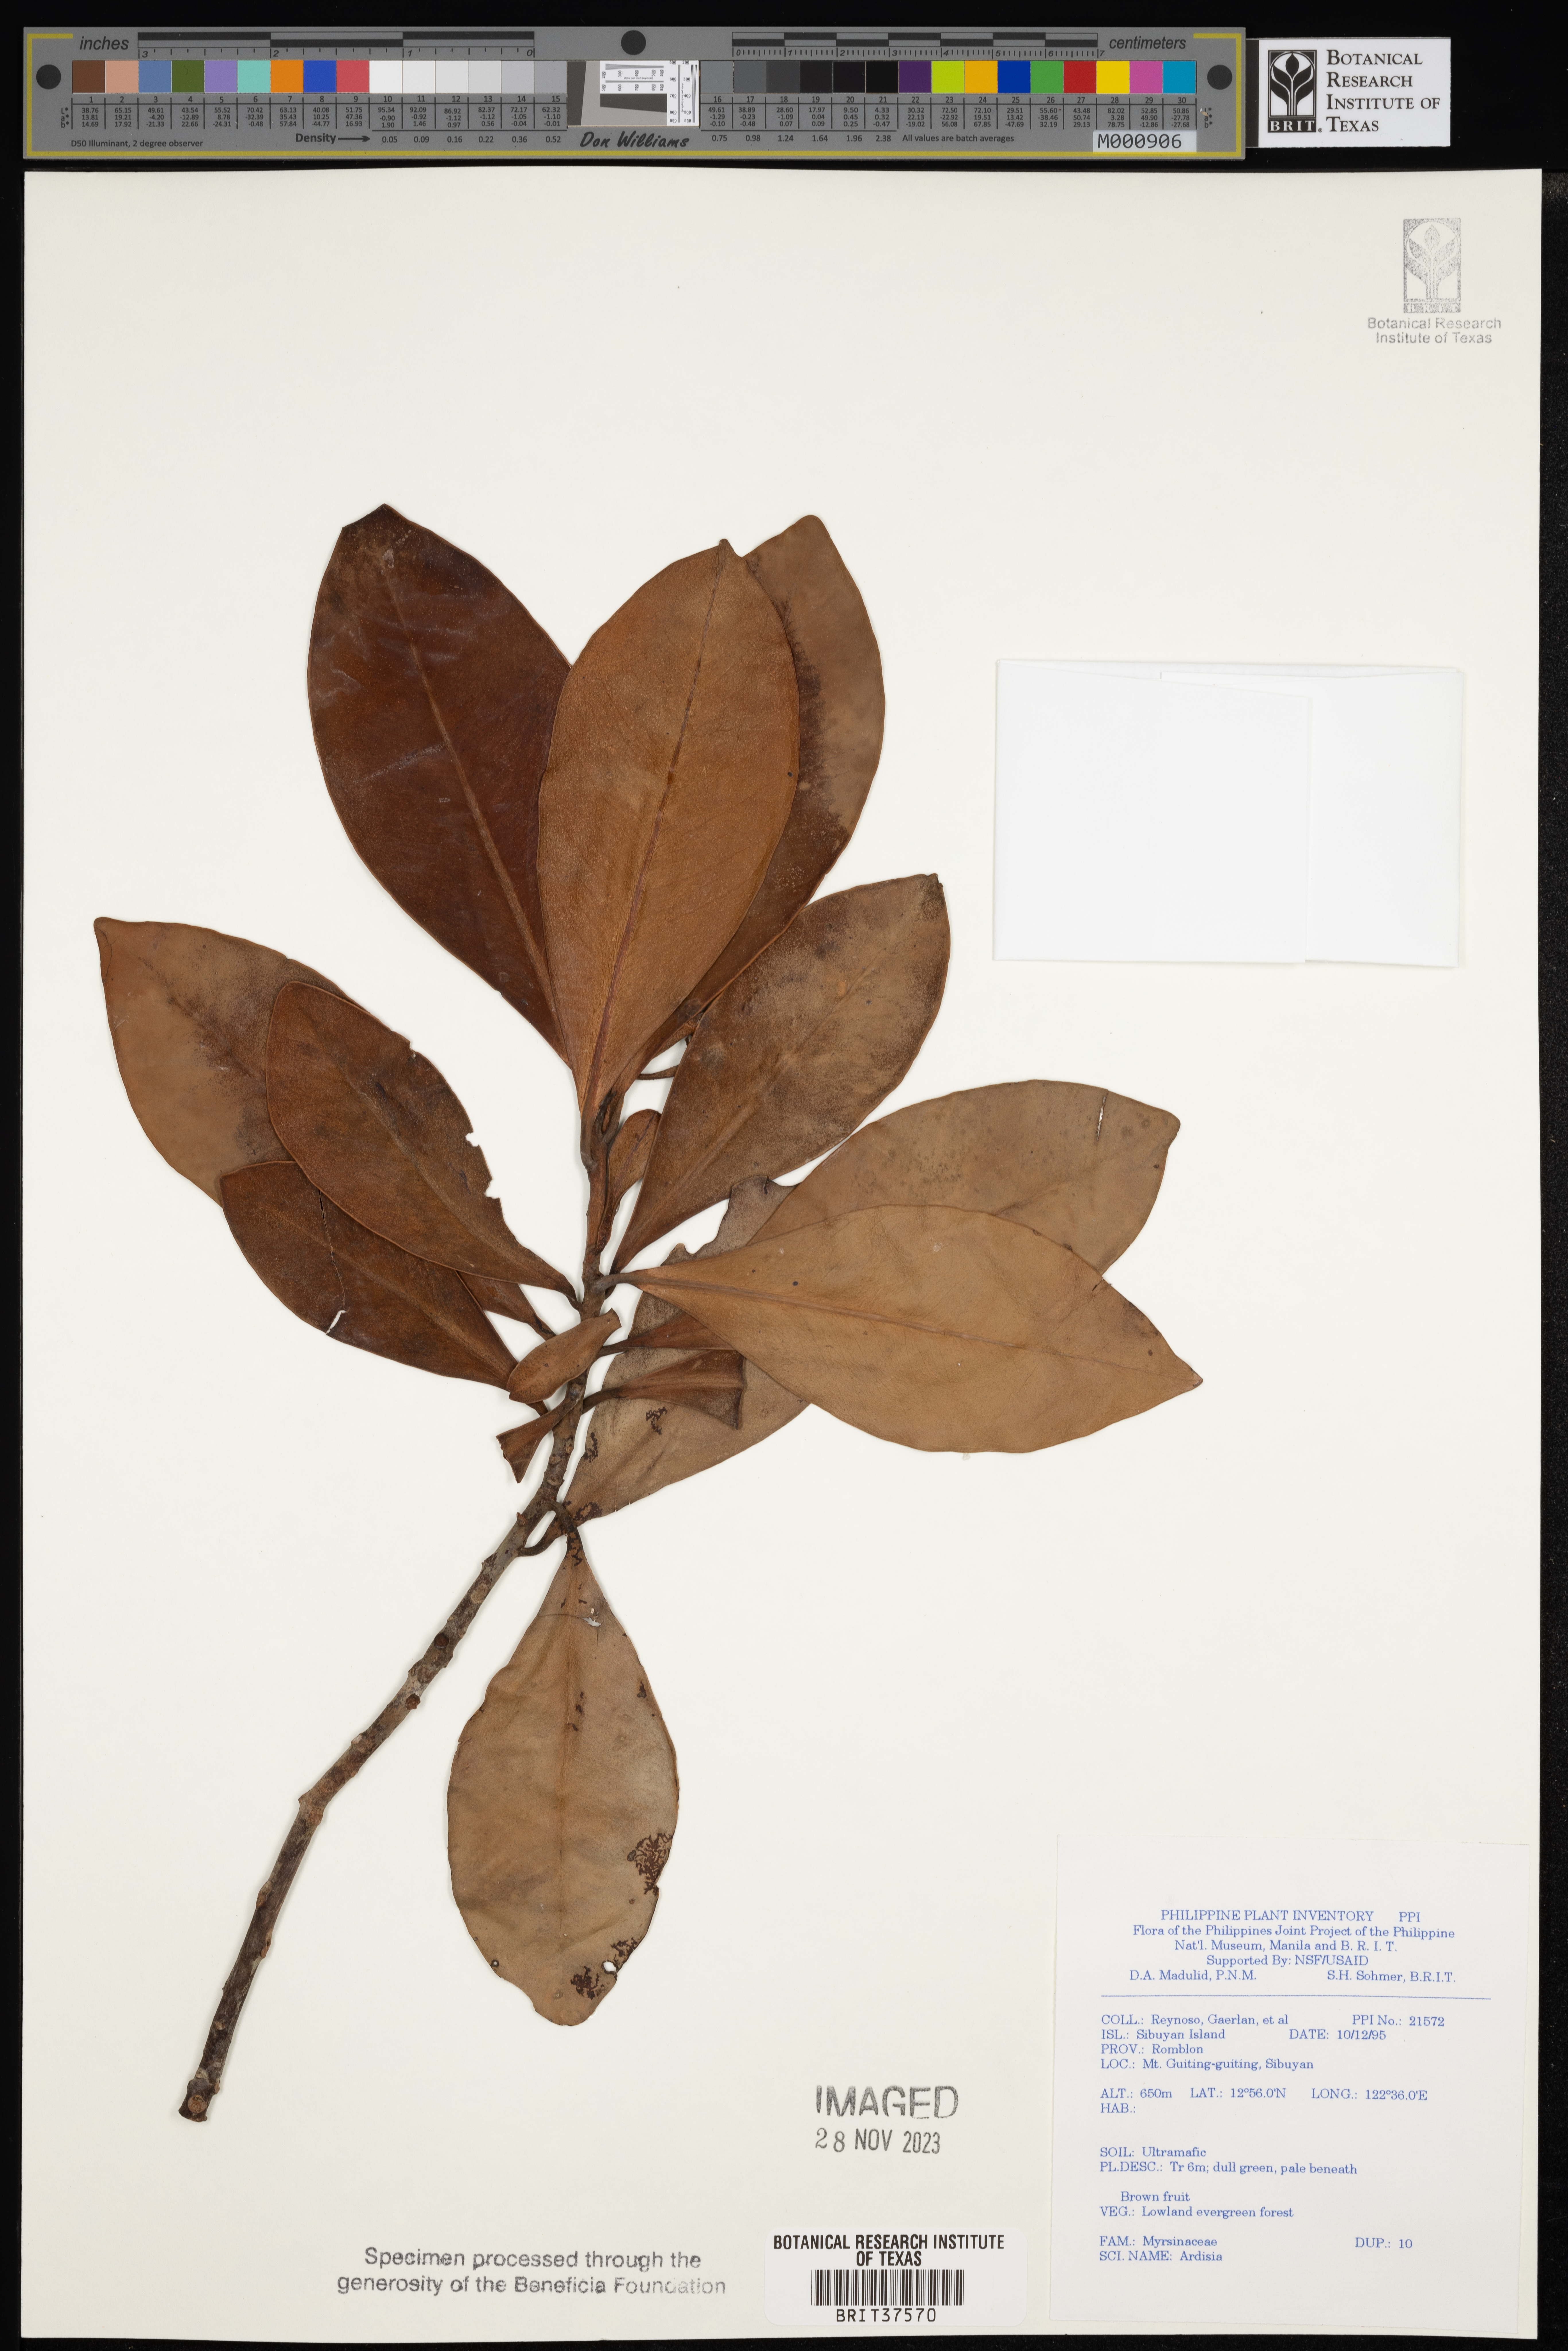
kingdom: Plantae
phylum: Tracheophyta
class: Magnoliopsida
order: Ericales
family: Primulaceae
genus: Ardisia
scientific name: Ardisia
